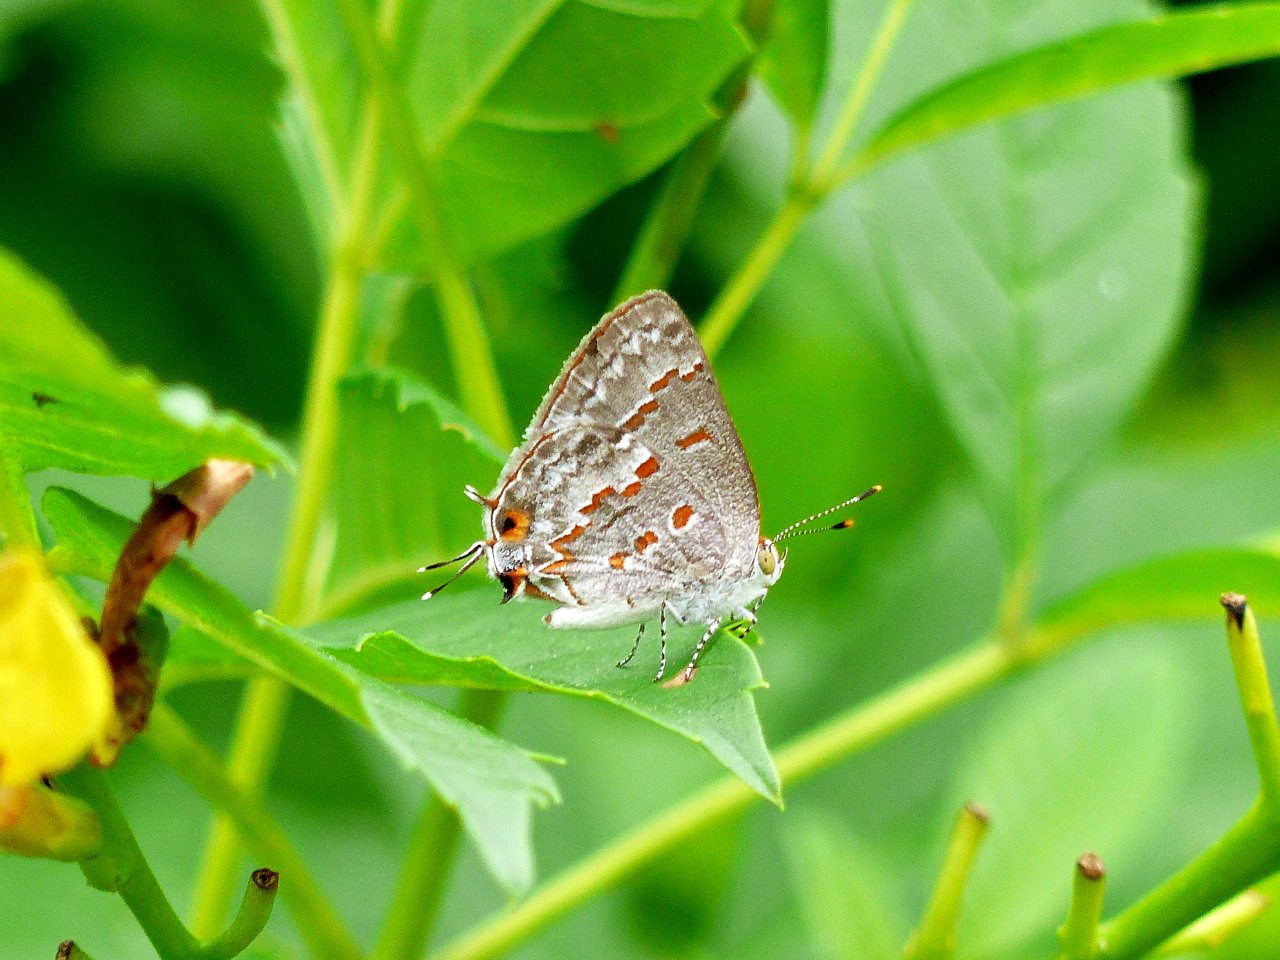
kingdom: Animalia
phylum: Arthropoda
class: Insecta
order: Lepidoptera
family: Lycaenidae
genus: Ministrymon
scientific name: Ministrymon clytie
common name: Clytie Ministreak
